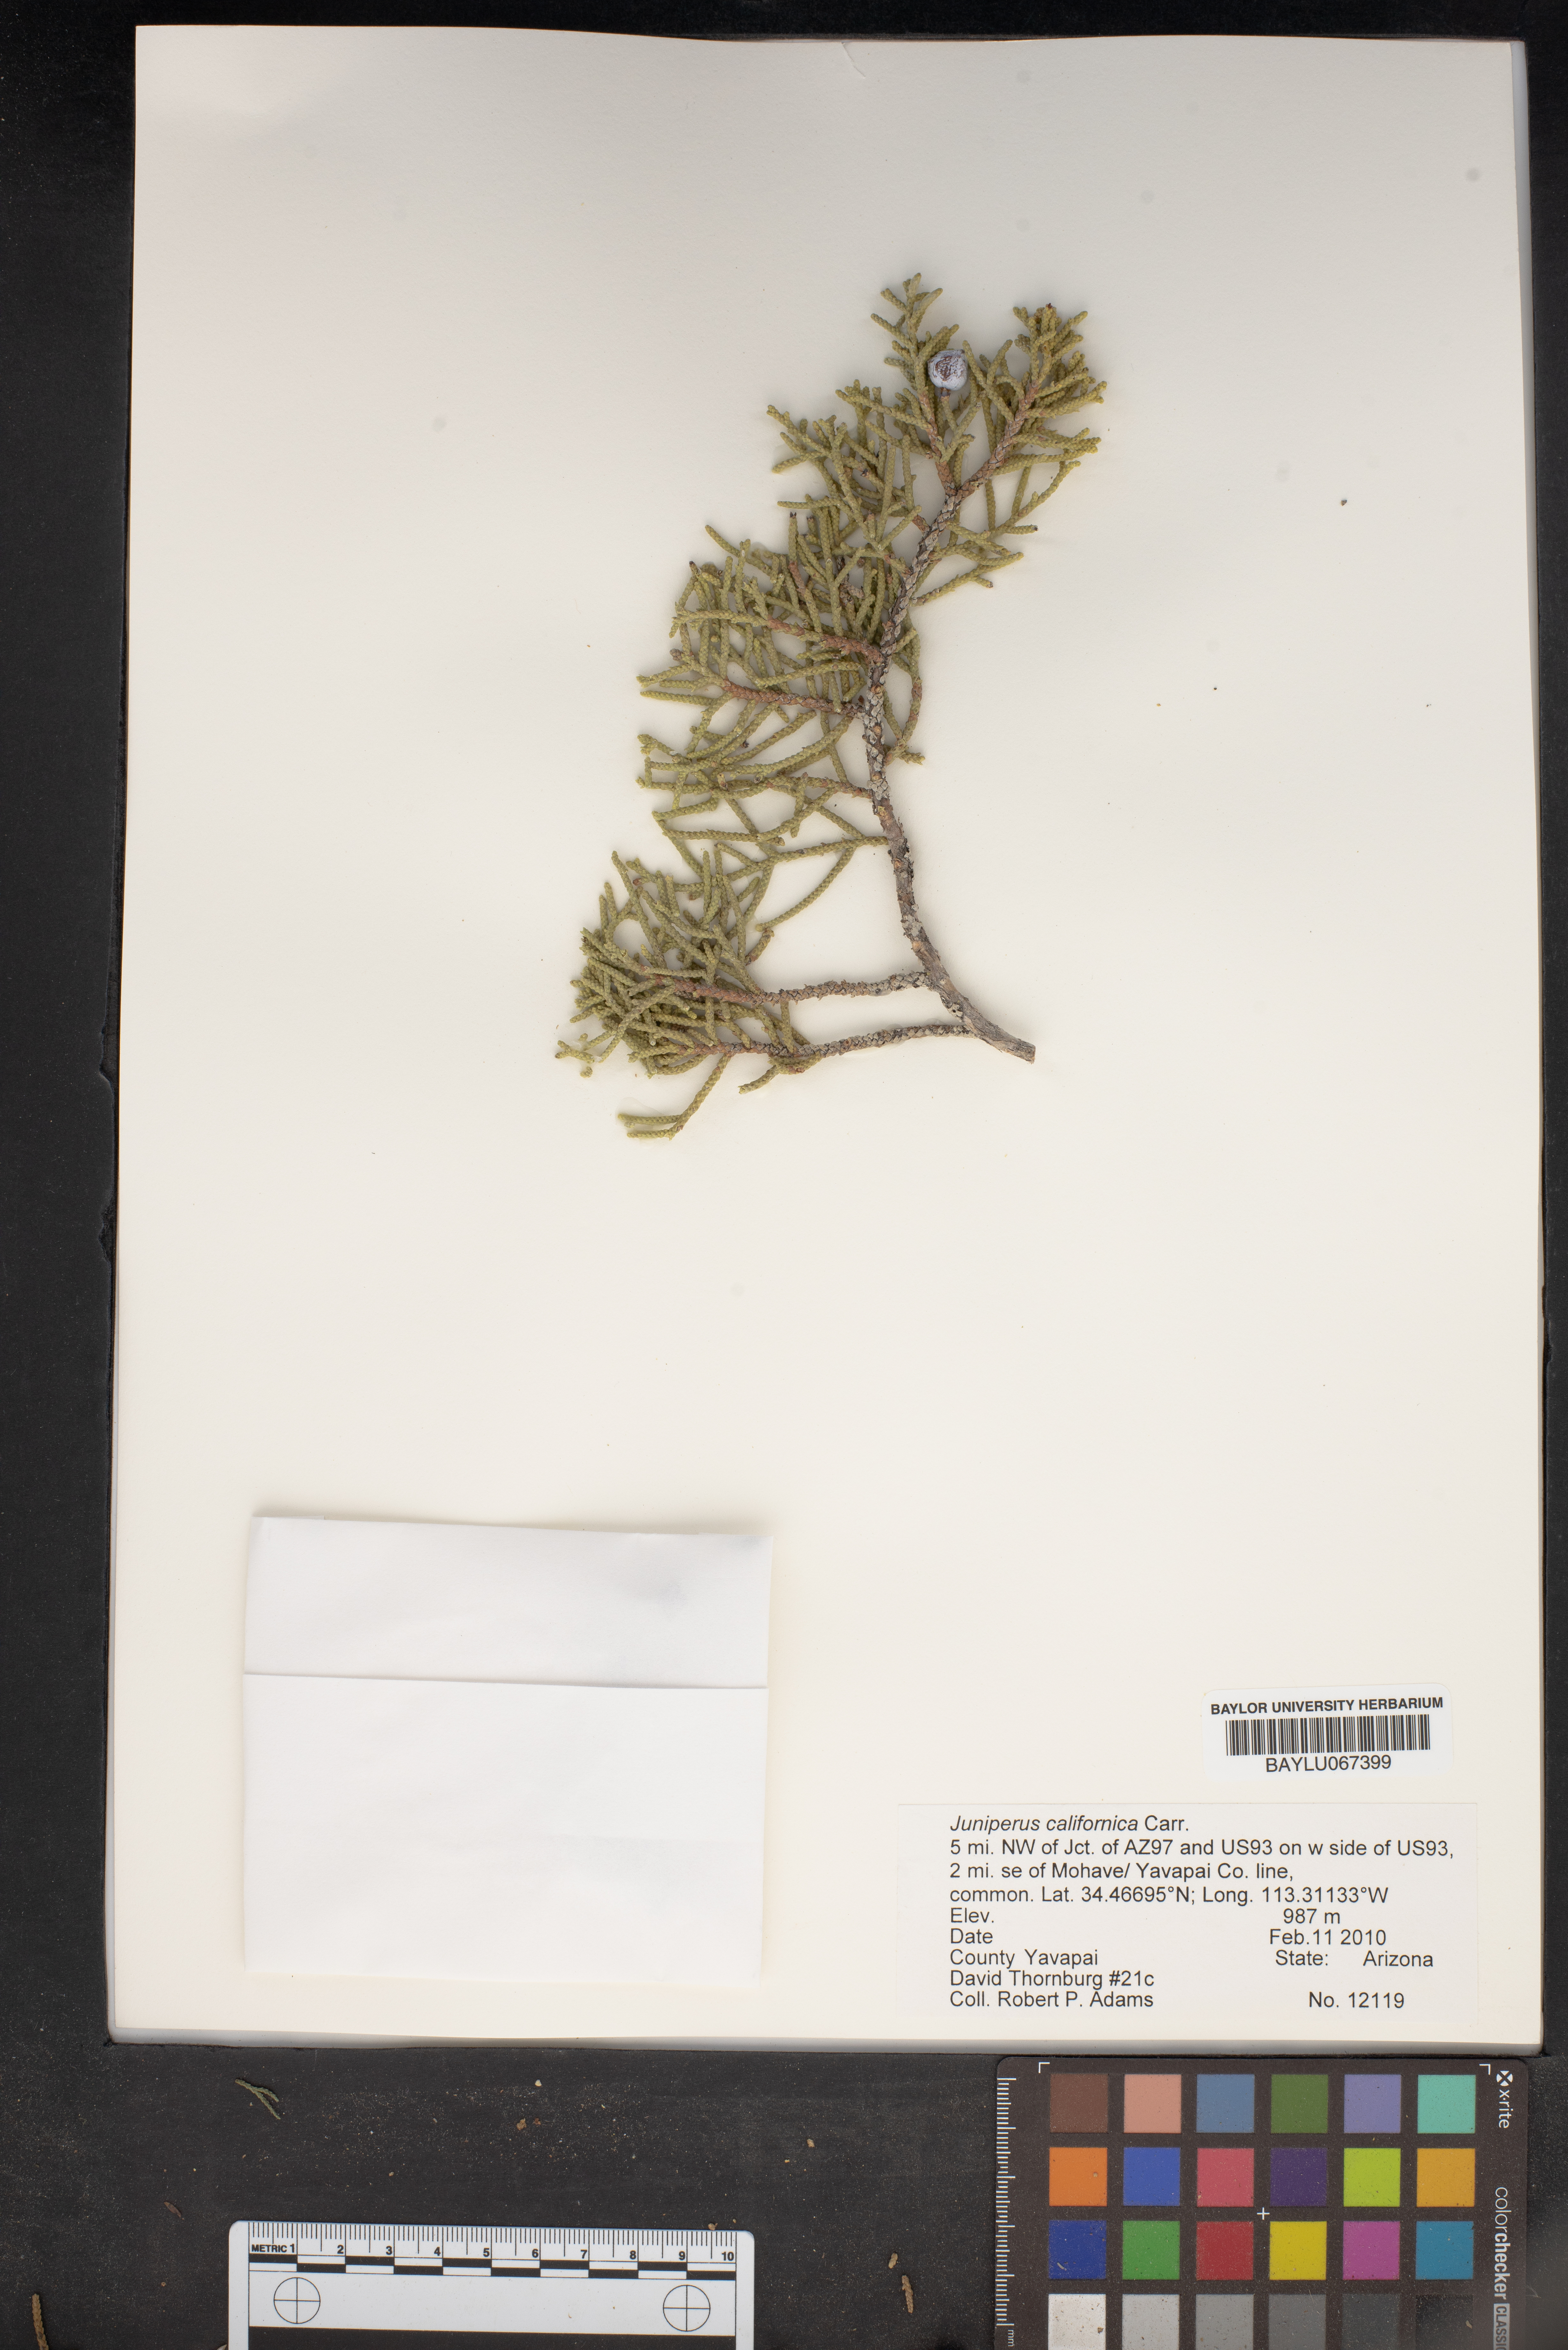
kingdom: Plantae
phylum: Tracheophyta
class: Pinopsida
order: Pinales
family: Cupressaceae
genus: Juniperus
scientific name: Juniperus californica
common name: California juniper
